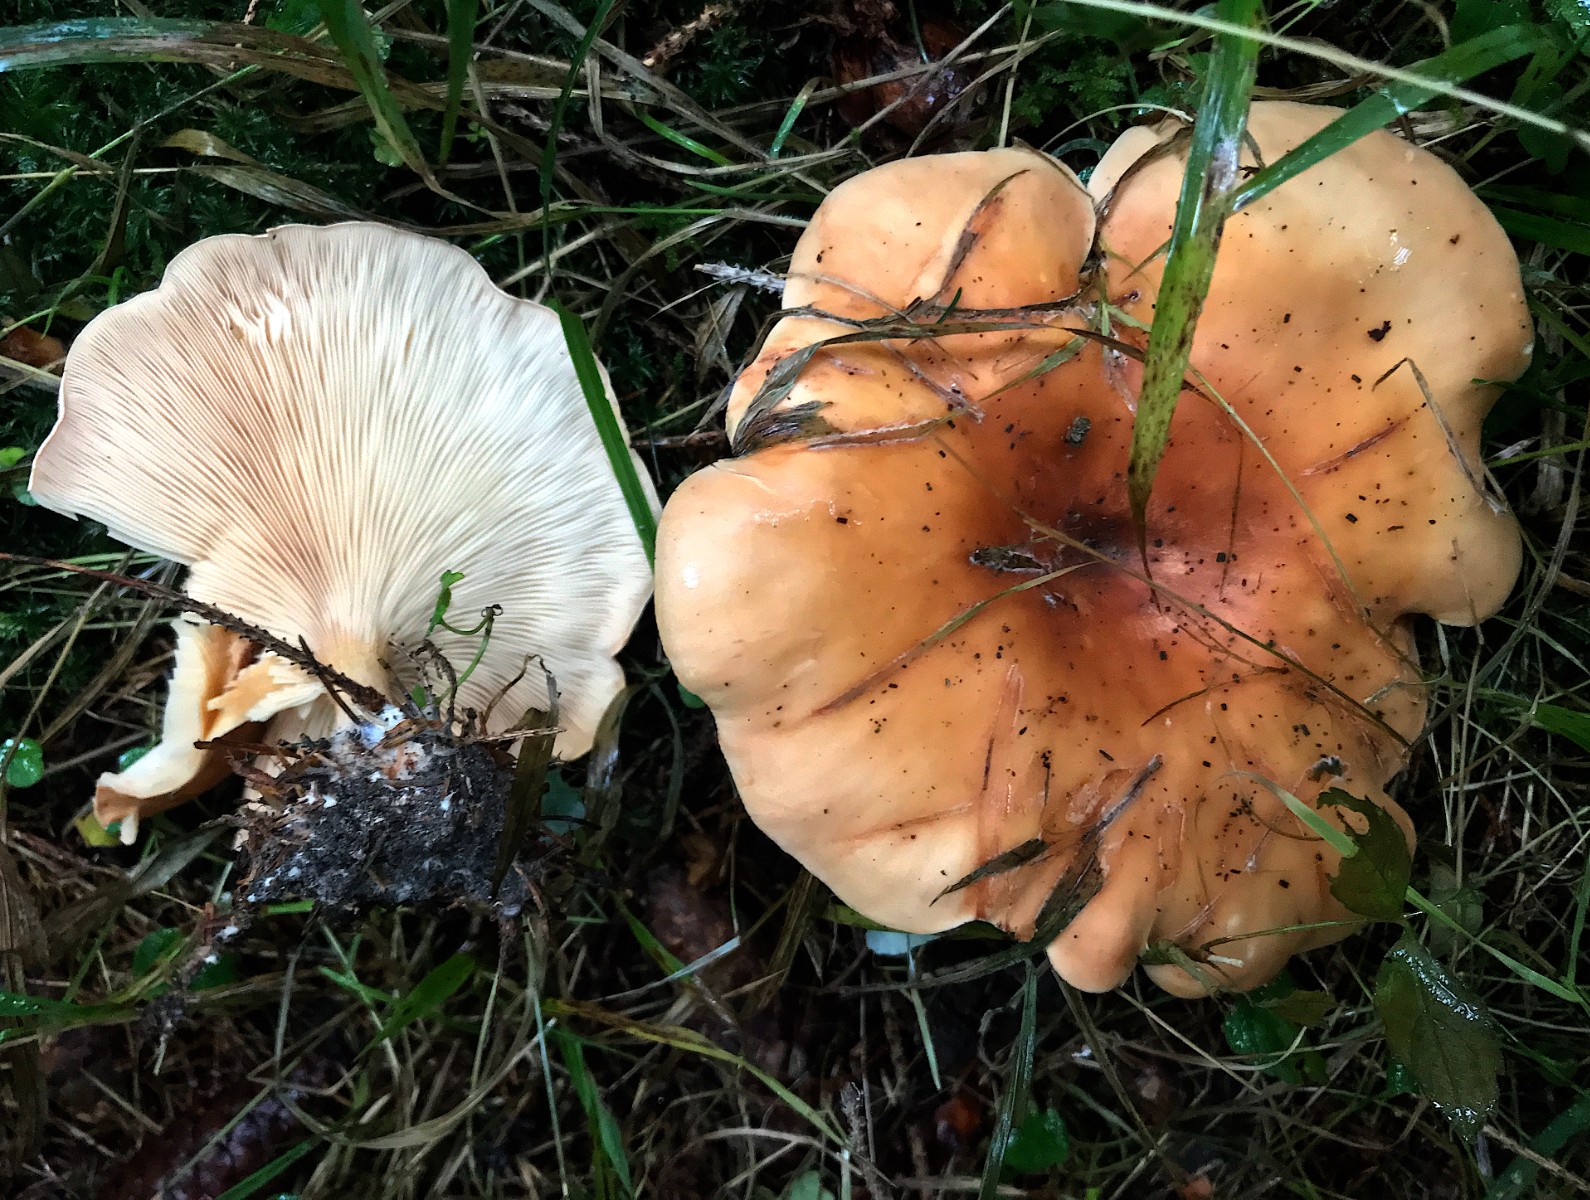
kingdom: Fungi
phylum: Basidiomycota
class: Agaricomycetes
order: Agaricales
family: Tricholomataceae
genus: Paralepista
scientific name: Paralepista flaccida
